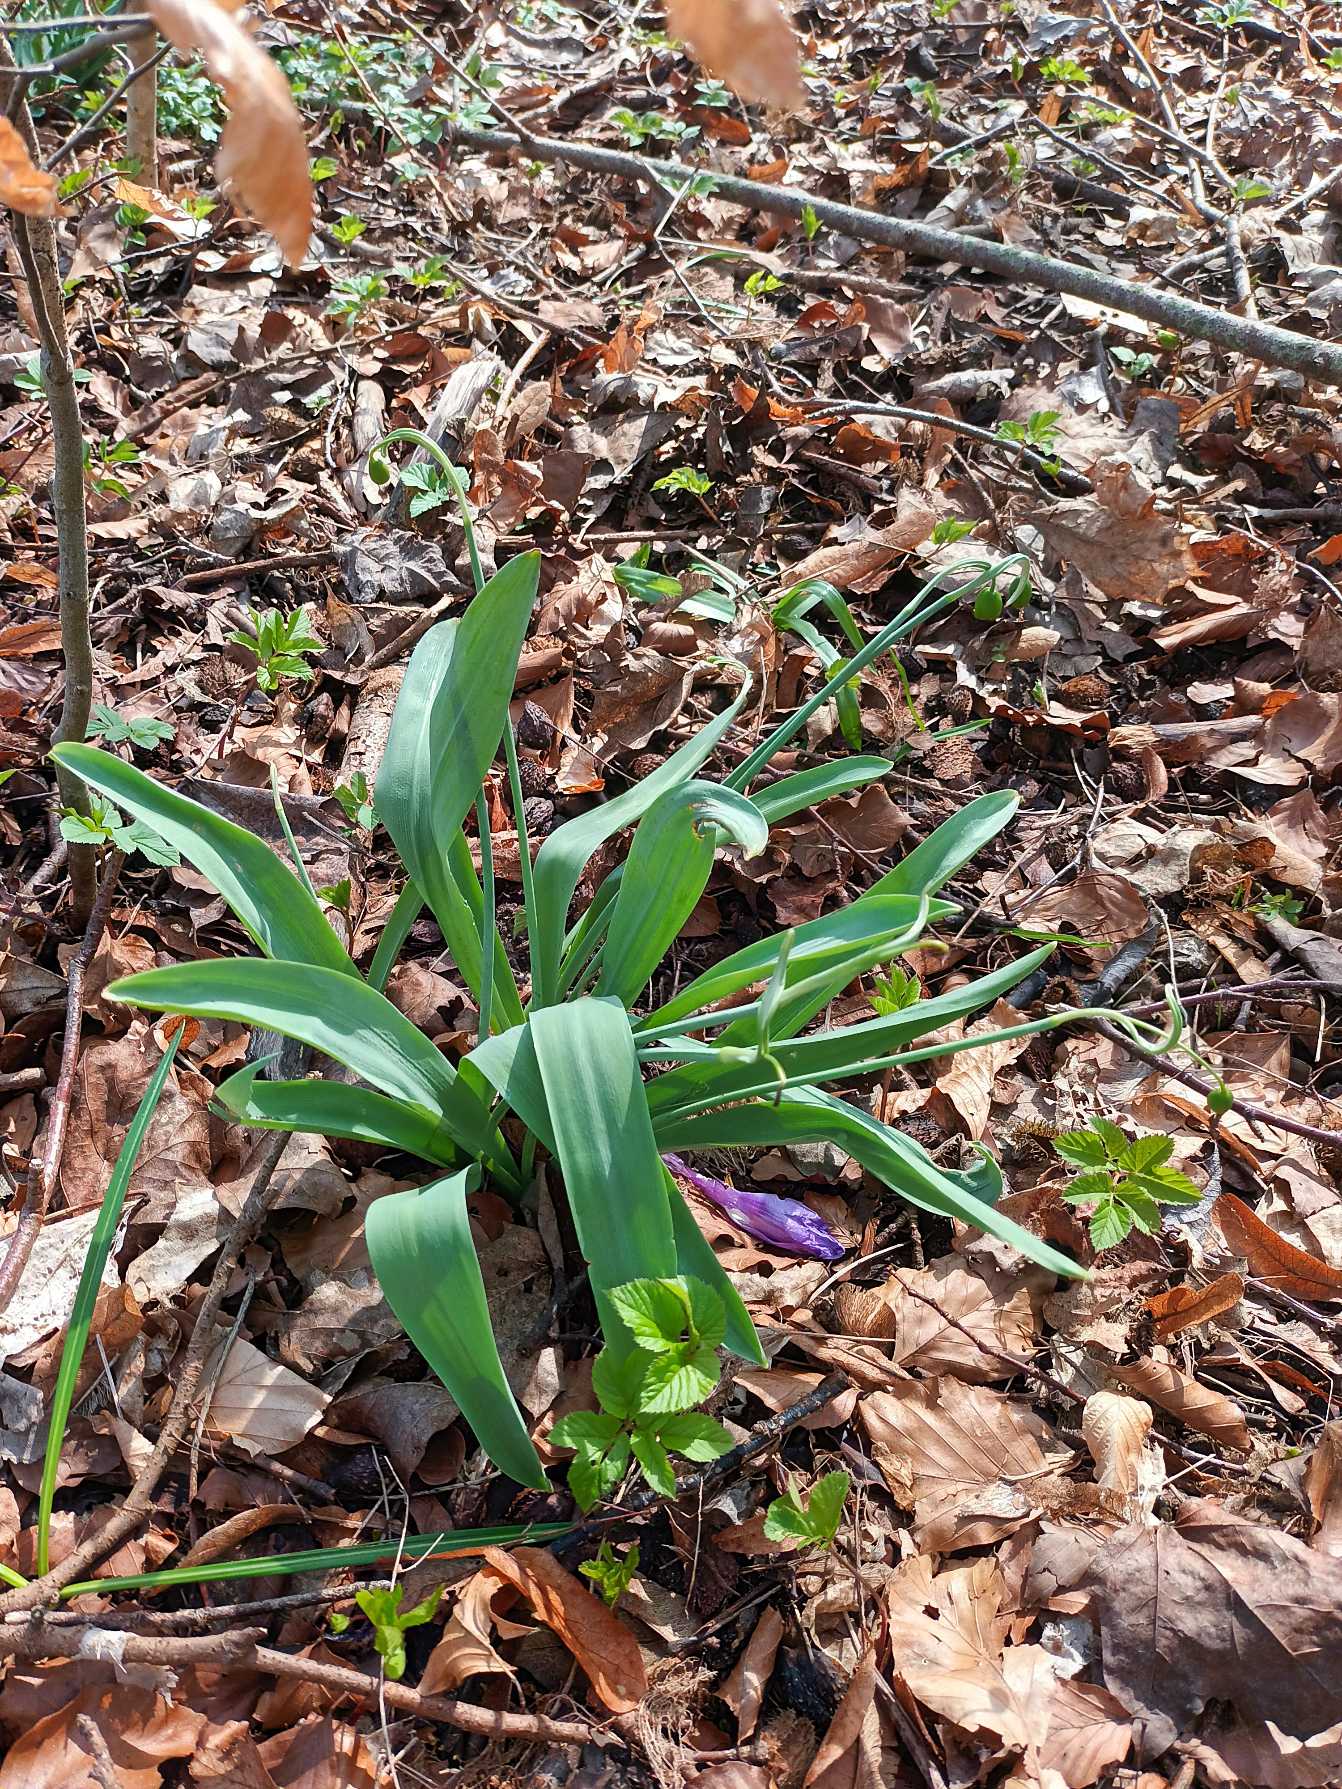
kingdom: Plantae
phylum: Tracheophyta
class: Liliopsida
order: Asparagales
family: Amaryllidaceae
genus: Galanthus
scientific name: Galanthus elwesii
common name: Tyrkisk vintergæk
